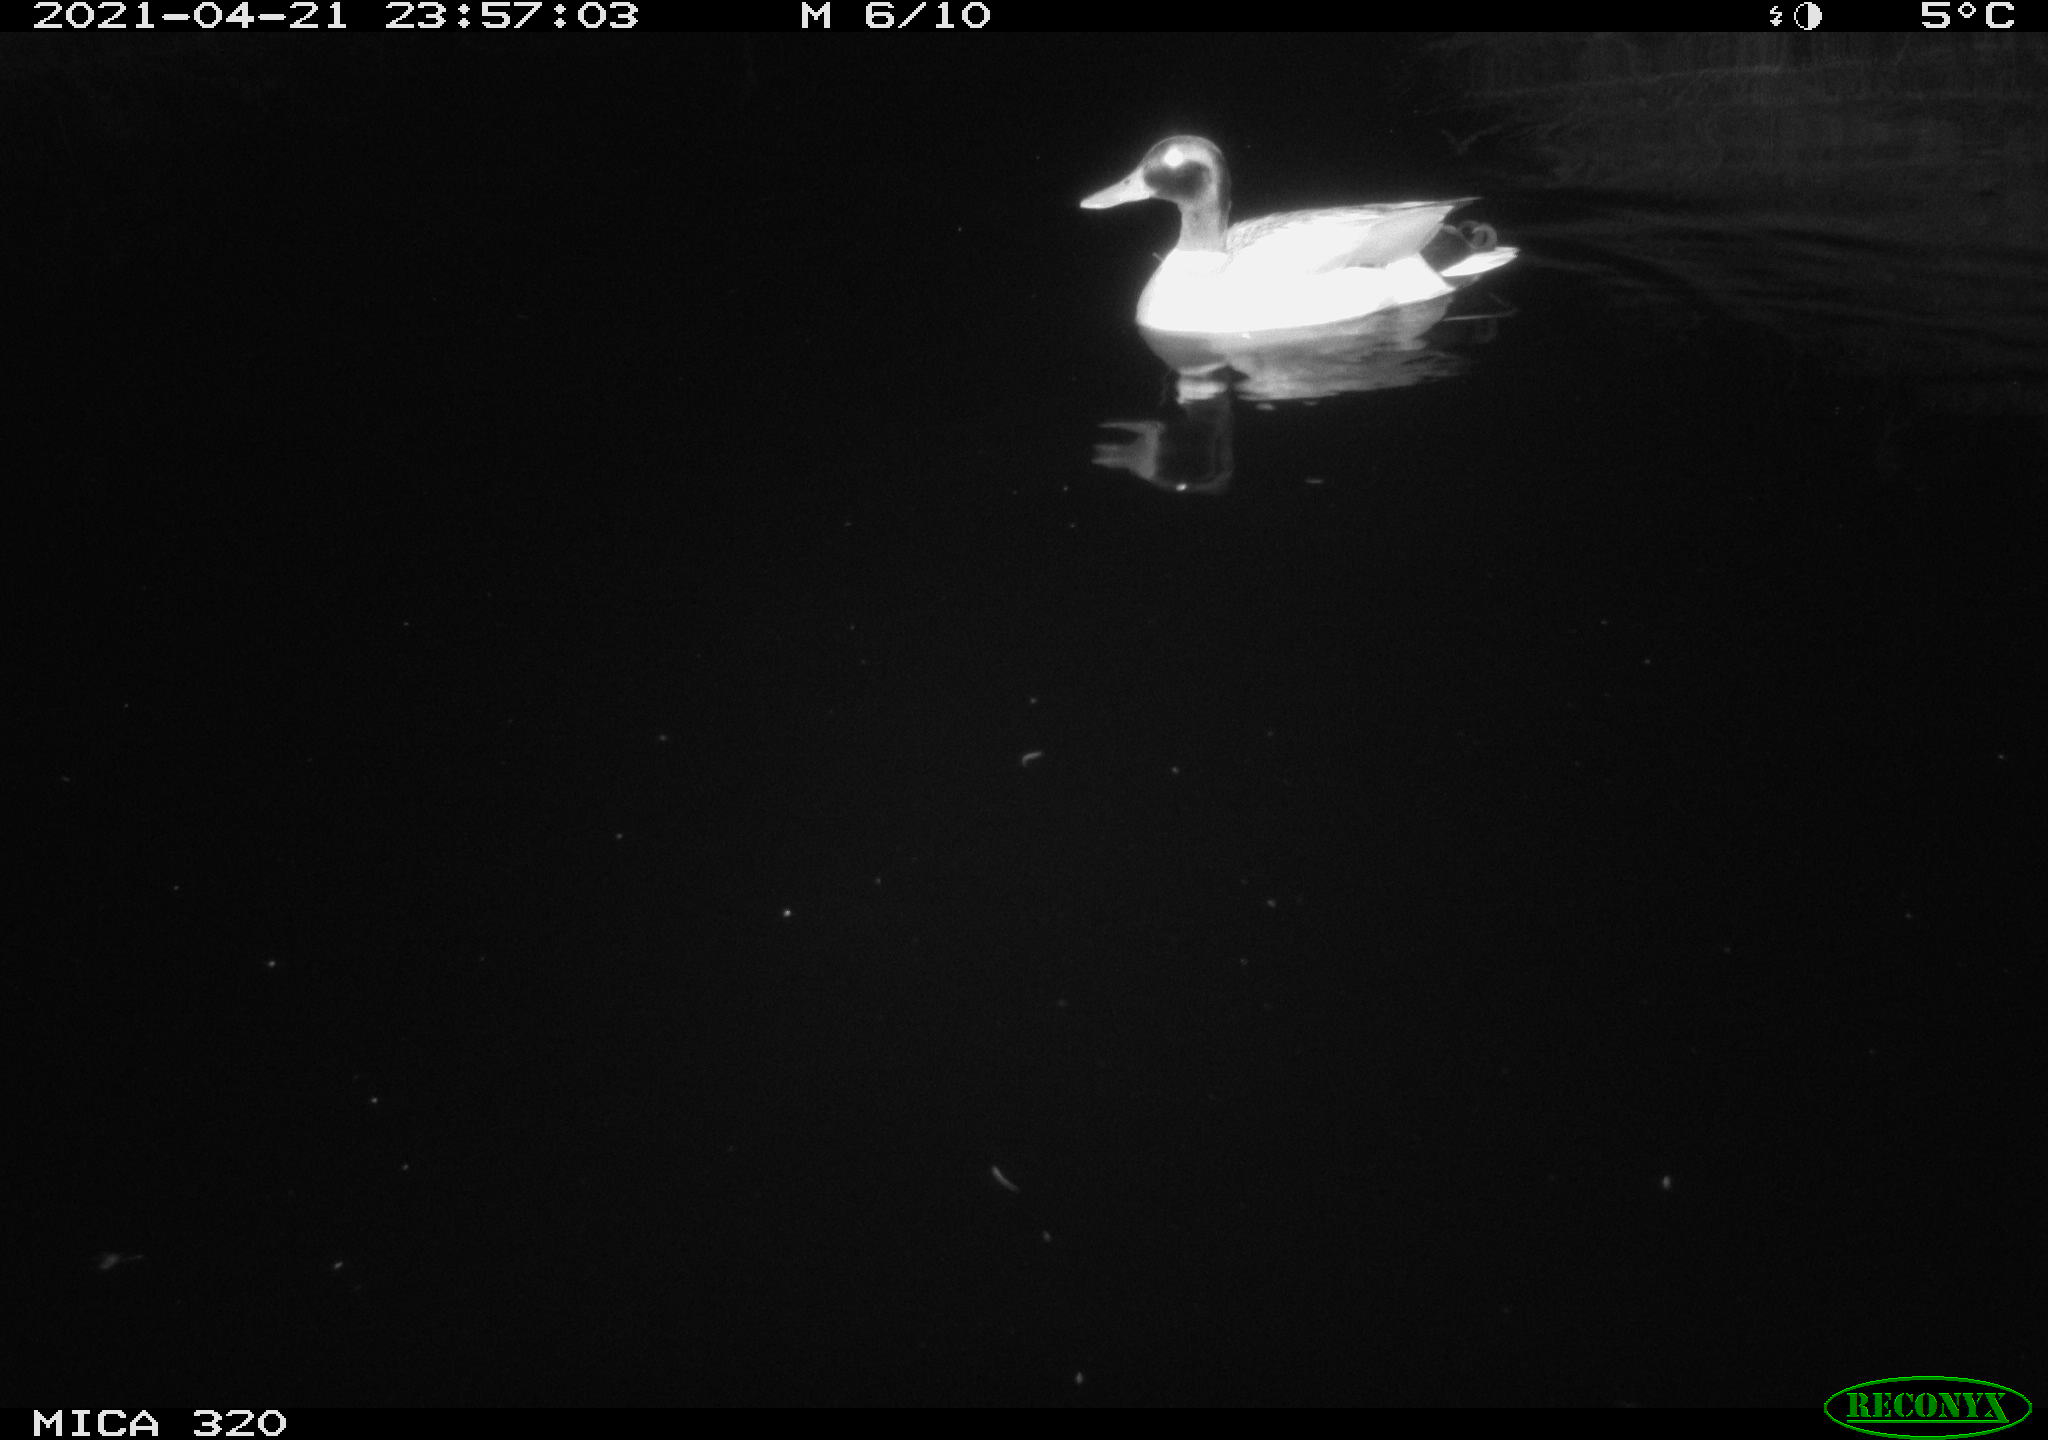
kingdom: Animalia
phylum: Chordata
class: Aves
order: Anseriformes
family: Anatidae
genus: Anas
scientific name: Anas platyrhynchos
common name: Mallard
